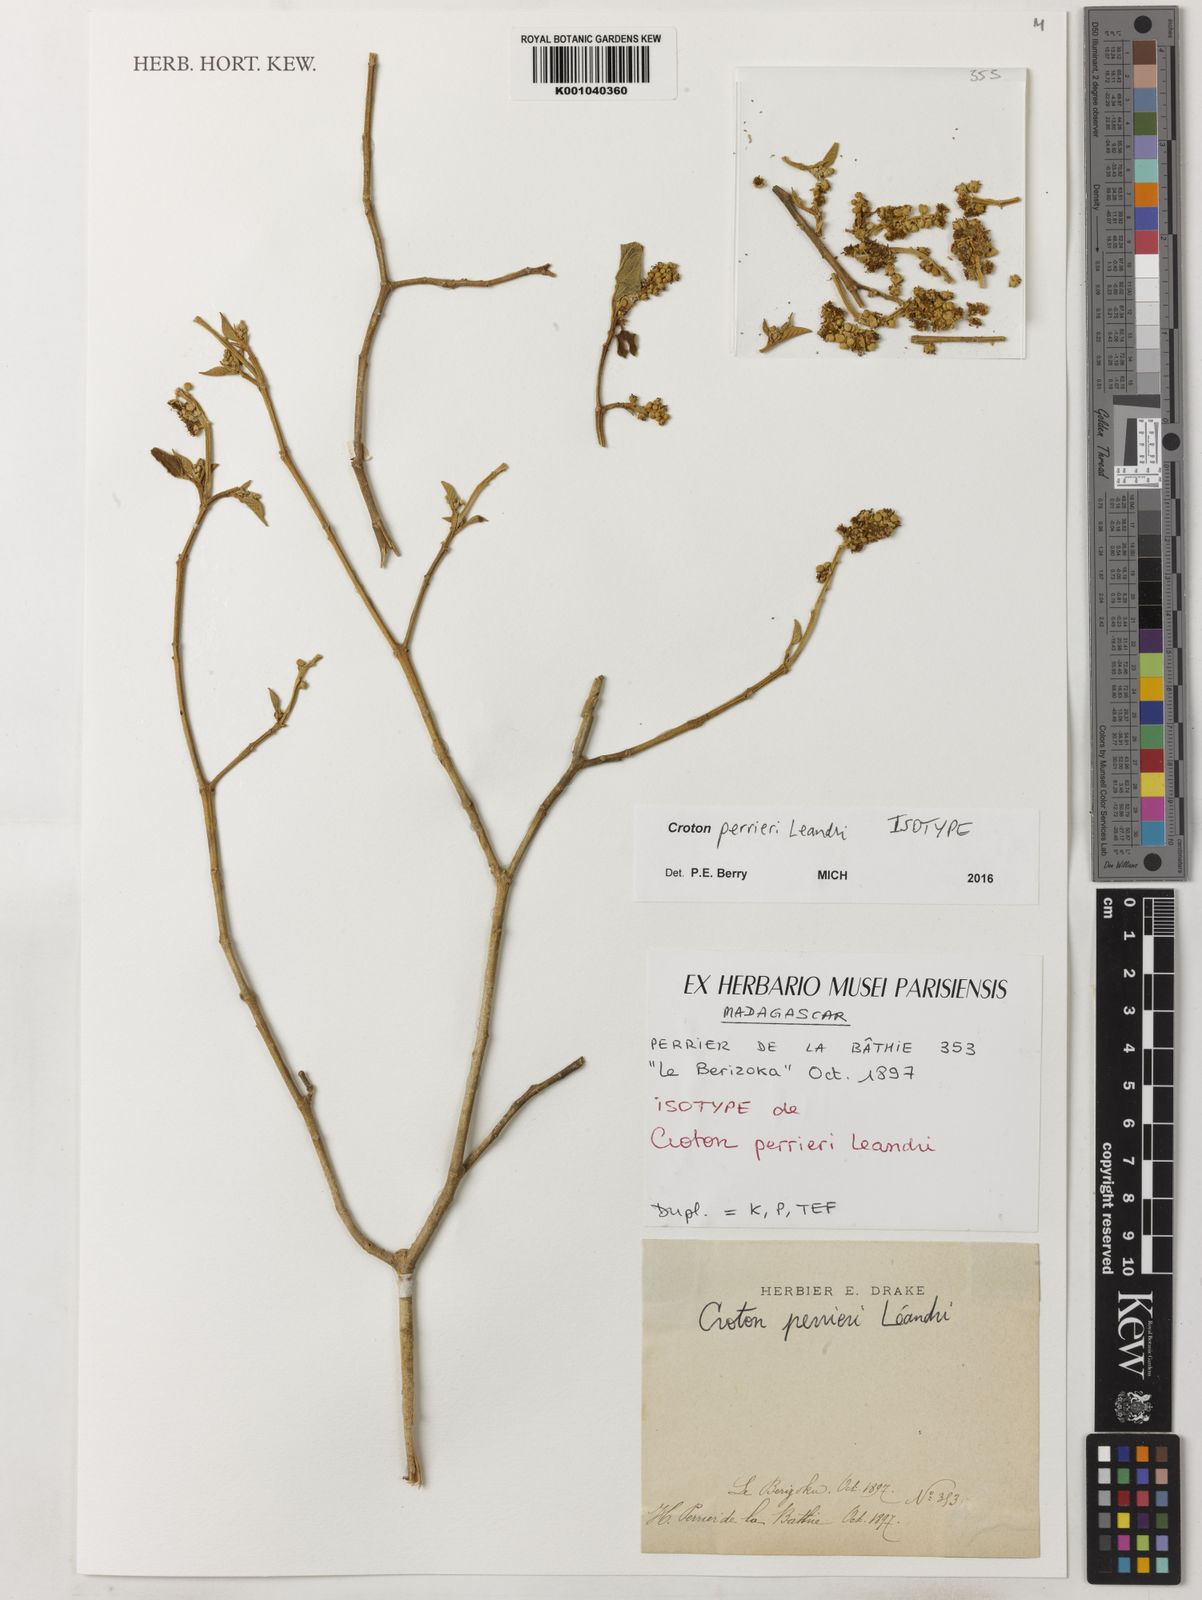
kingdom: Plantae
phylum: Tracheophyta
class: Magnoliopsida
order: Malpighiales
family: Euphorbiaceae
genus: Croton
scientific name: Croton stanneus
